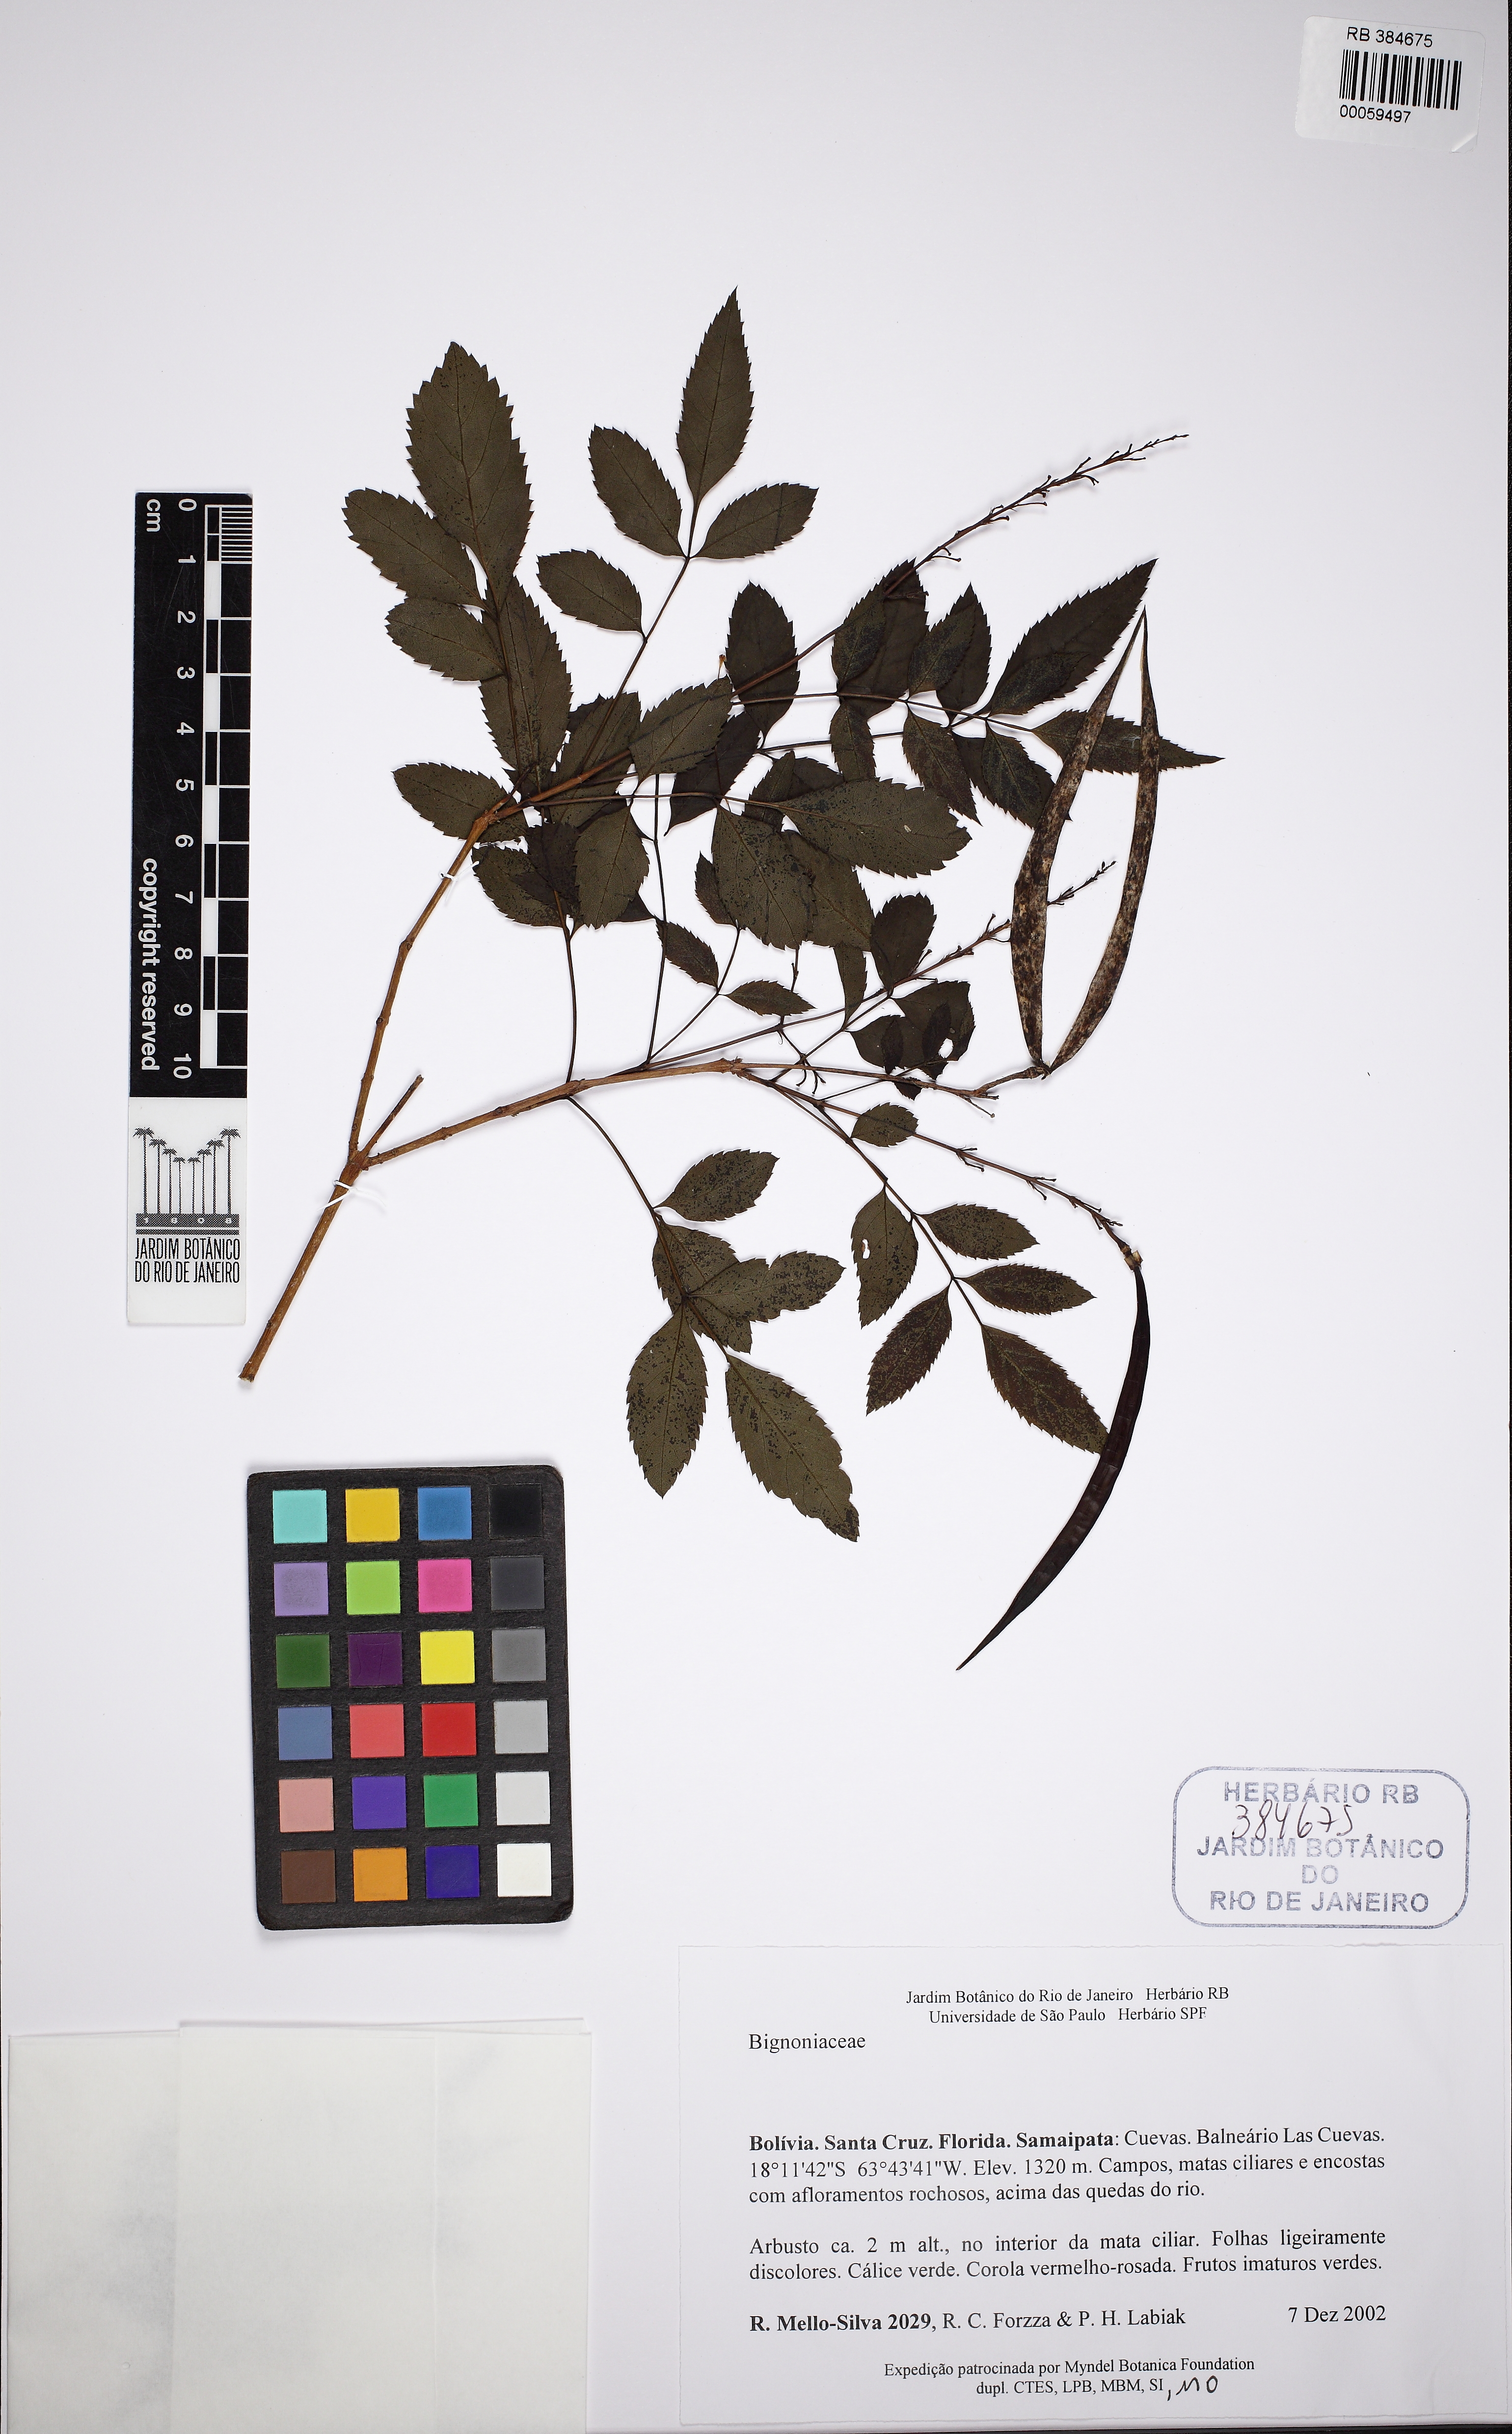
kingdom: Plantae
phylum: Tracheophyta
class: Magnoliopsida
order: Lamiales
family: Bignoniaceae
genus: Amphilophium
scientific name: Amphilophium
